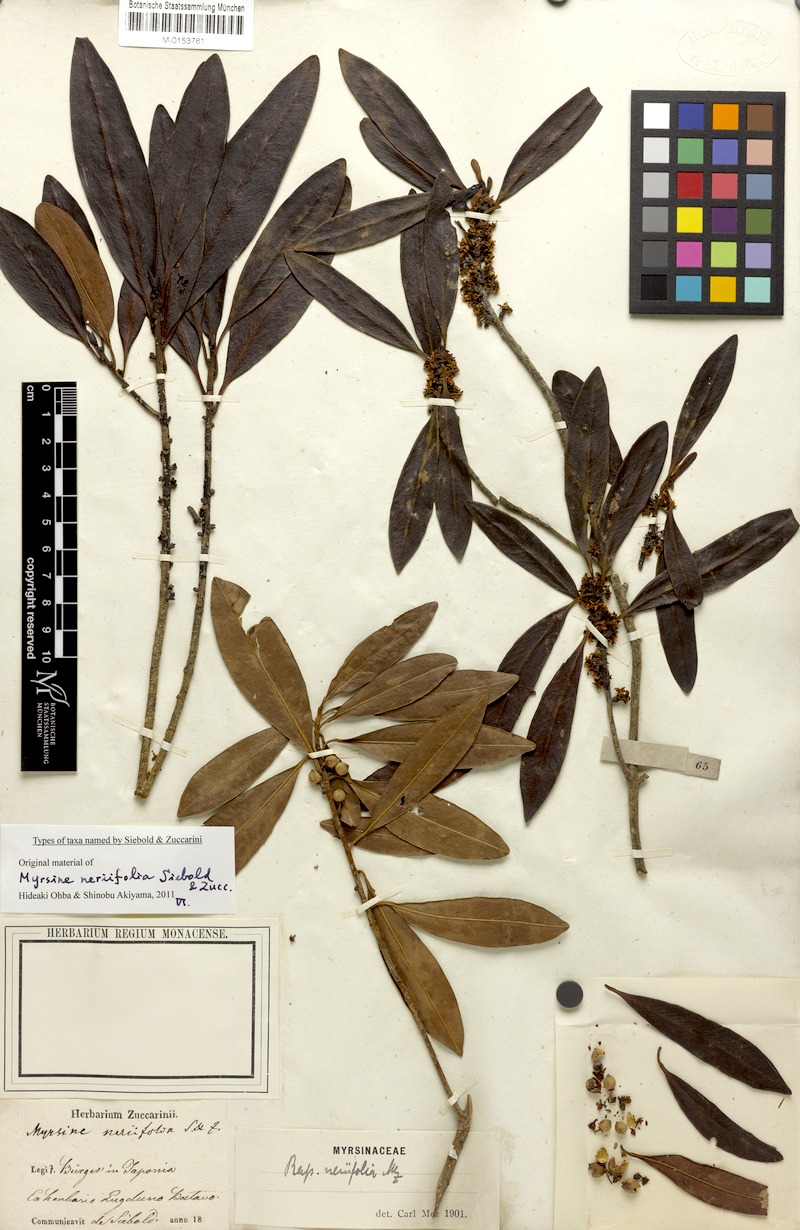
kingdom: Plantae
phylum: Tracheophyta
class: Magnoliopsida
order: Ericales
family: Primulaceae
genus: Myrsine
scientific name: Myrsine seguinii
